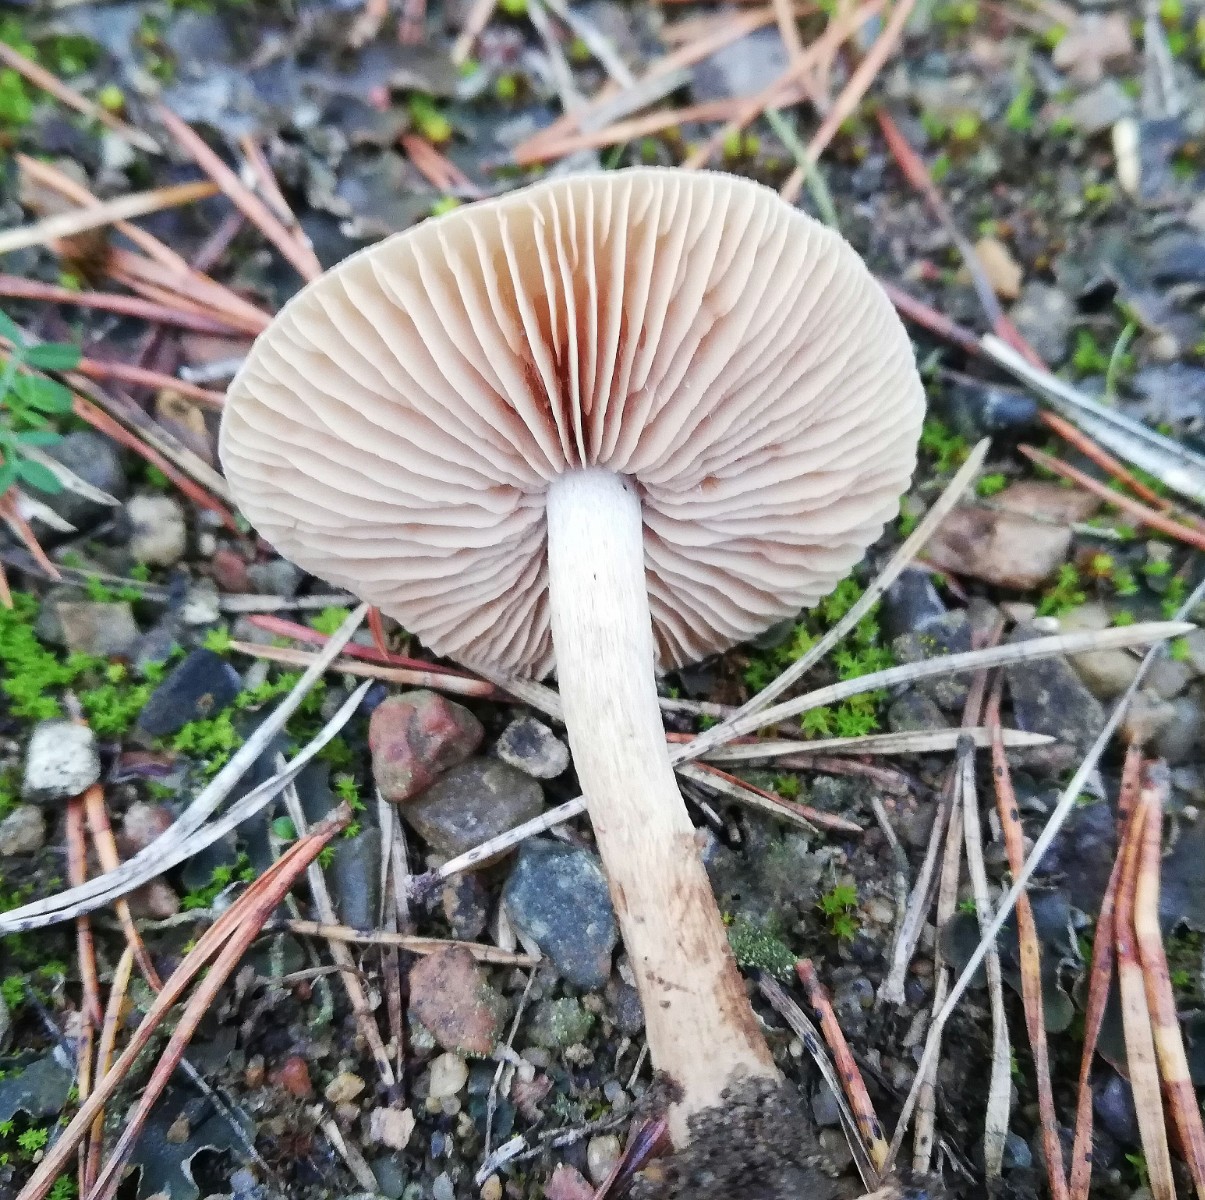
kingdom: Fungi
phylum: Basidiomycota
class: Agaricomycetes
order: Agaricales
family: Hymenogastraceae
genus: Hebeloma
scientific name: Hebeloma mesophaeum
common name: lerbrun tåreblad
